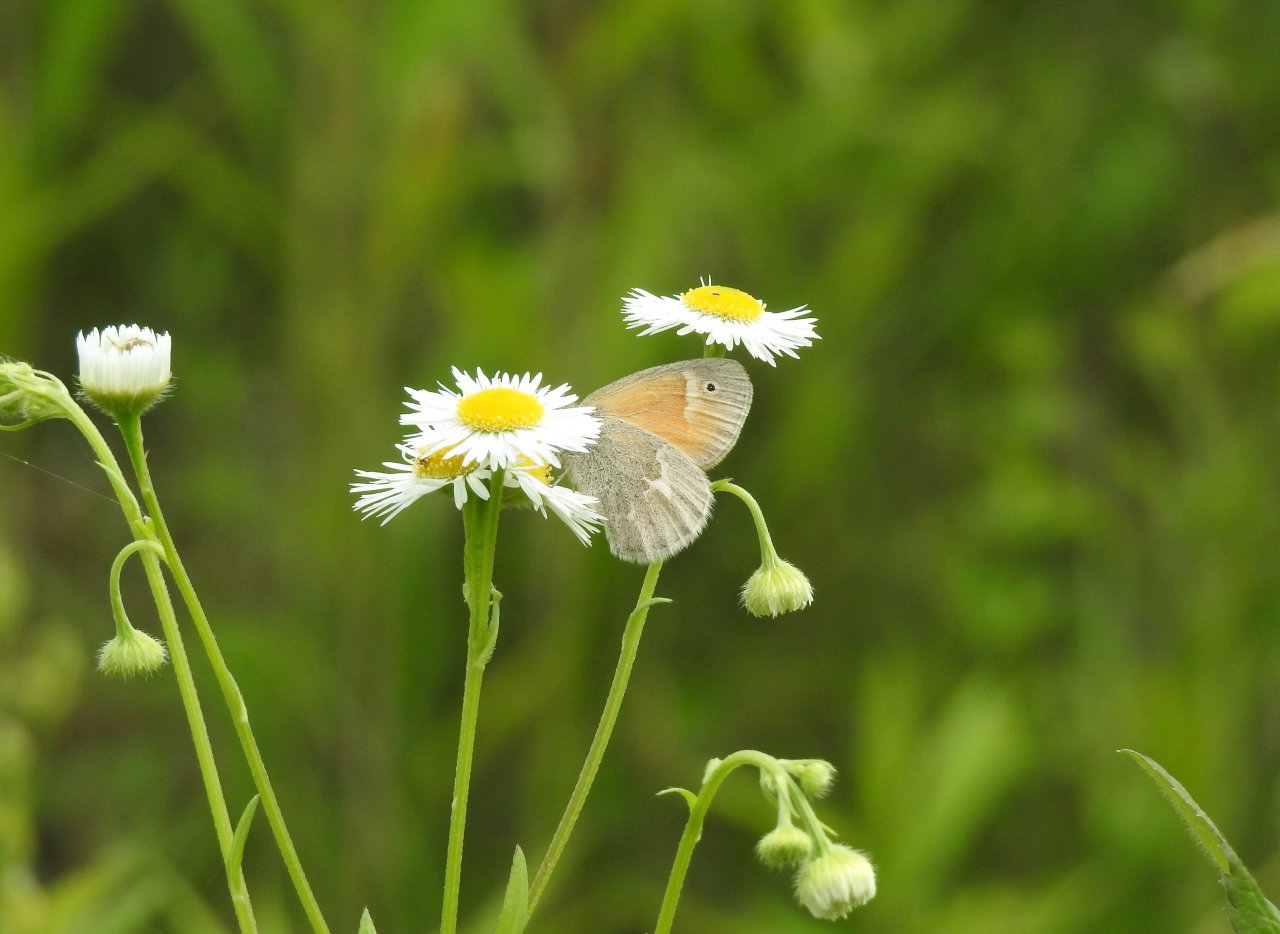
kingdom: Animalia
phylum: Arthropoda
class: Insecta
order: Lepidoptera
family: Nymphalidae
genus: Coenonympha
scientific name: Coenonympha tullia
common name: Large Heath
